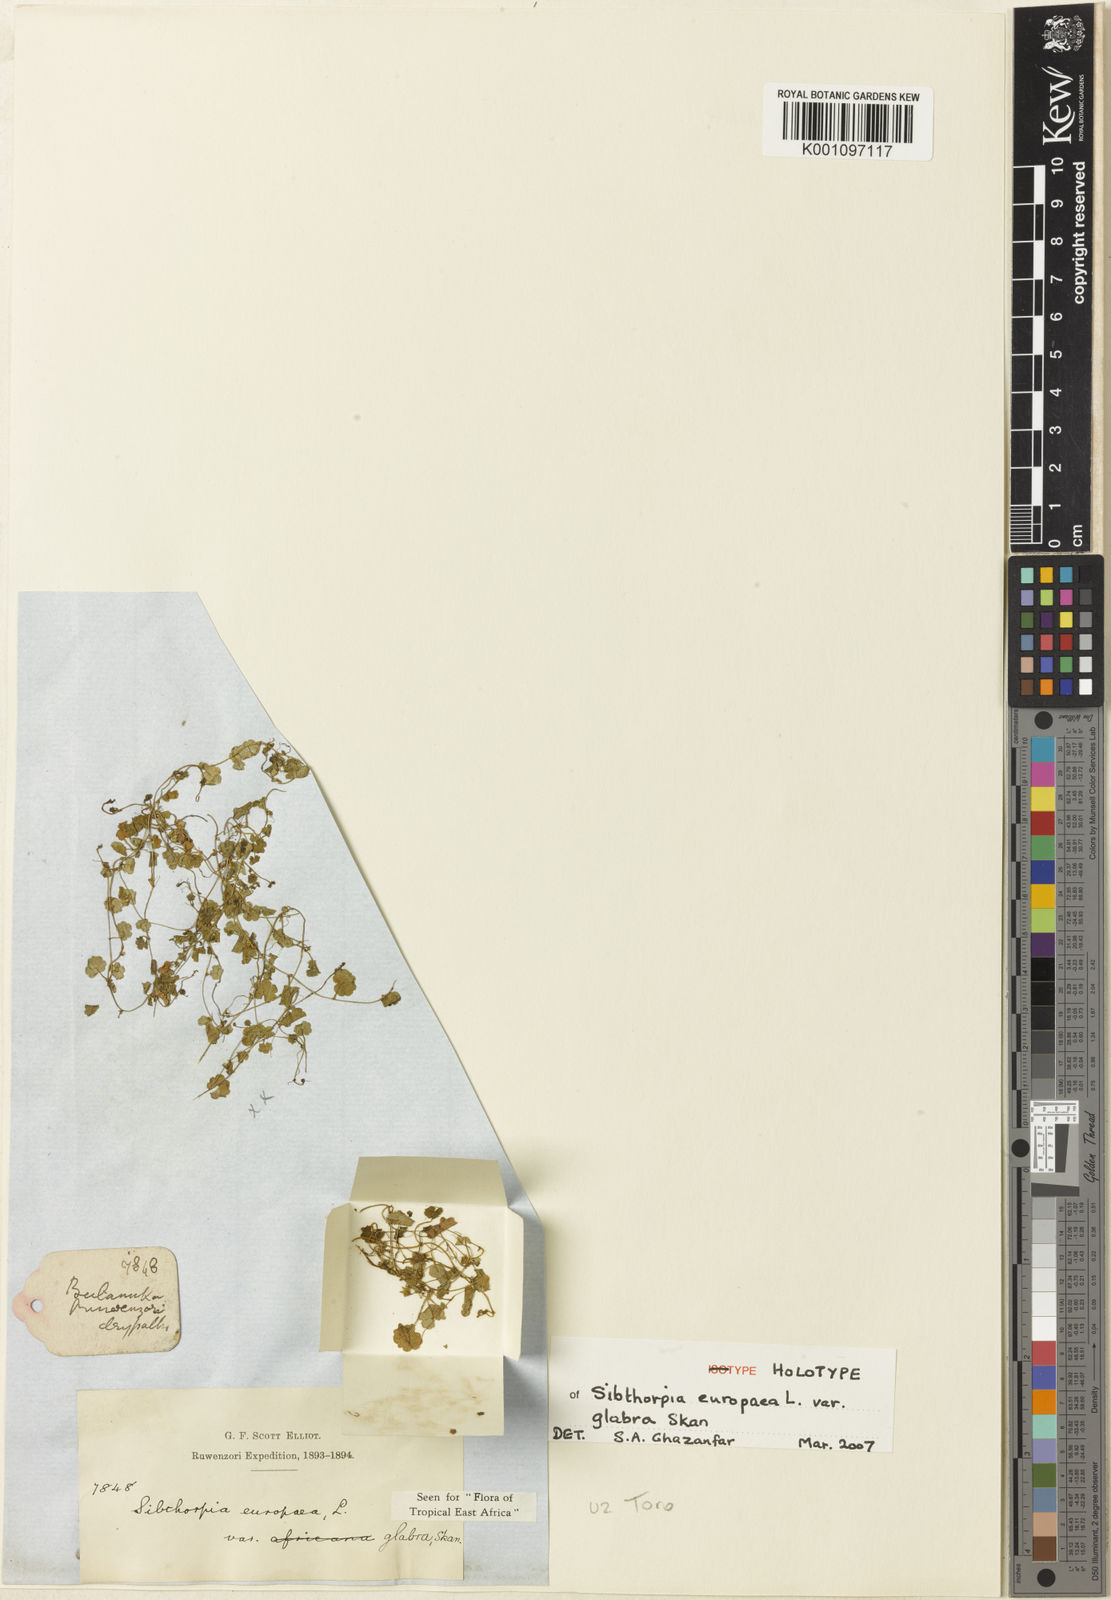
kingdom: Plantae
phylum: Tracheophyta
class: Magnoliopsida
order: Lamiales
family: Plantaginaceae
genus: Sibthorpia
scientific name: Sibthorpia europaea
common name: Cornish moneywort
